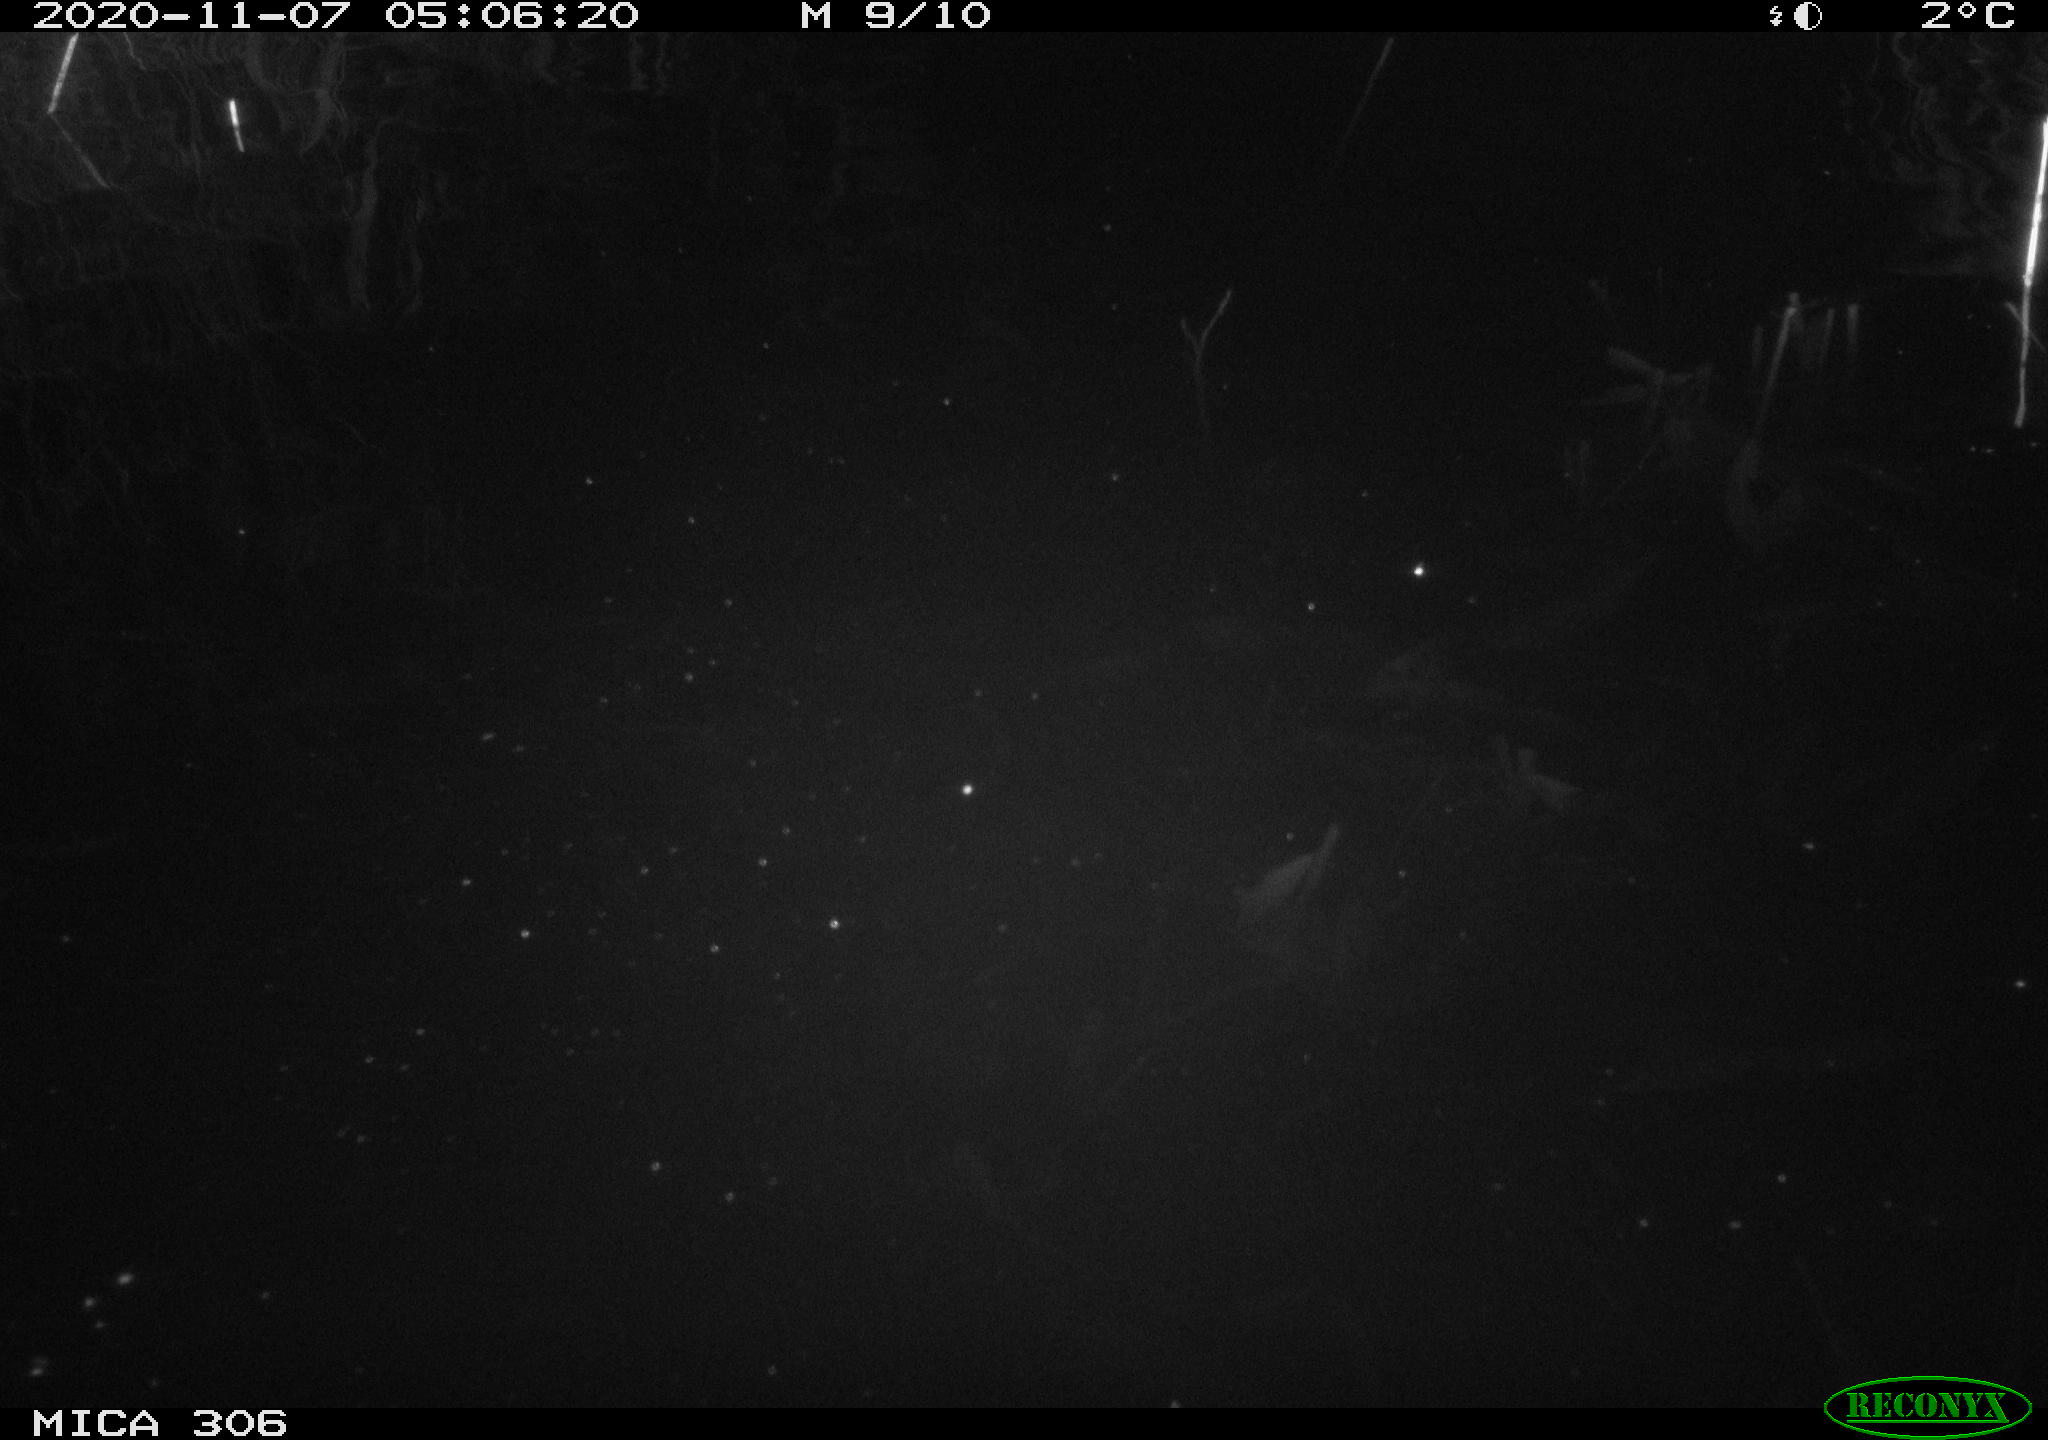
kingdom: Animalia
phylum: Chordata
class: Mammalia
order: Rodentia
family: Cricetidae
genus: Ondatra
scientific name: Ondatra zibethicus
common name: Muskrat
